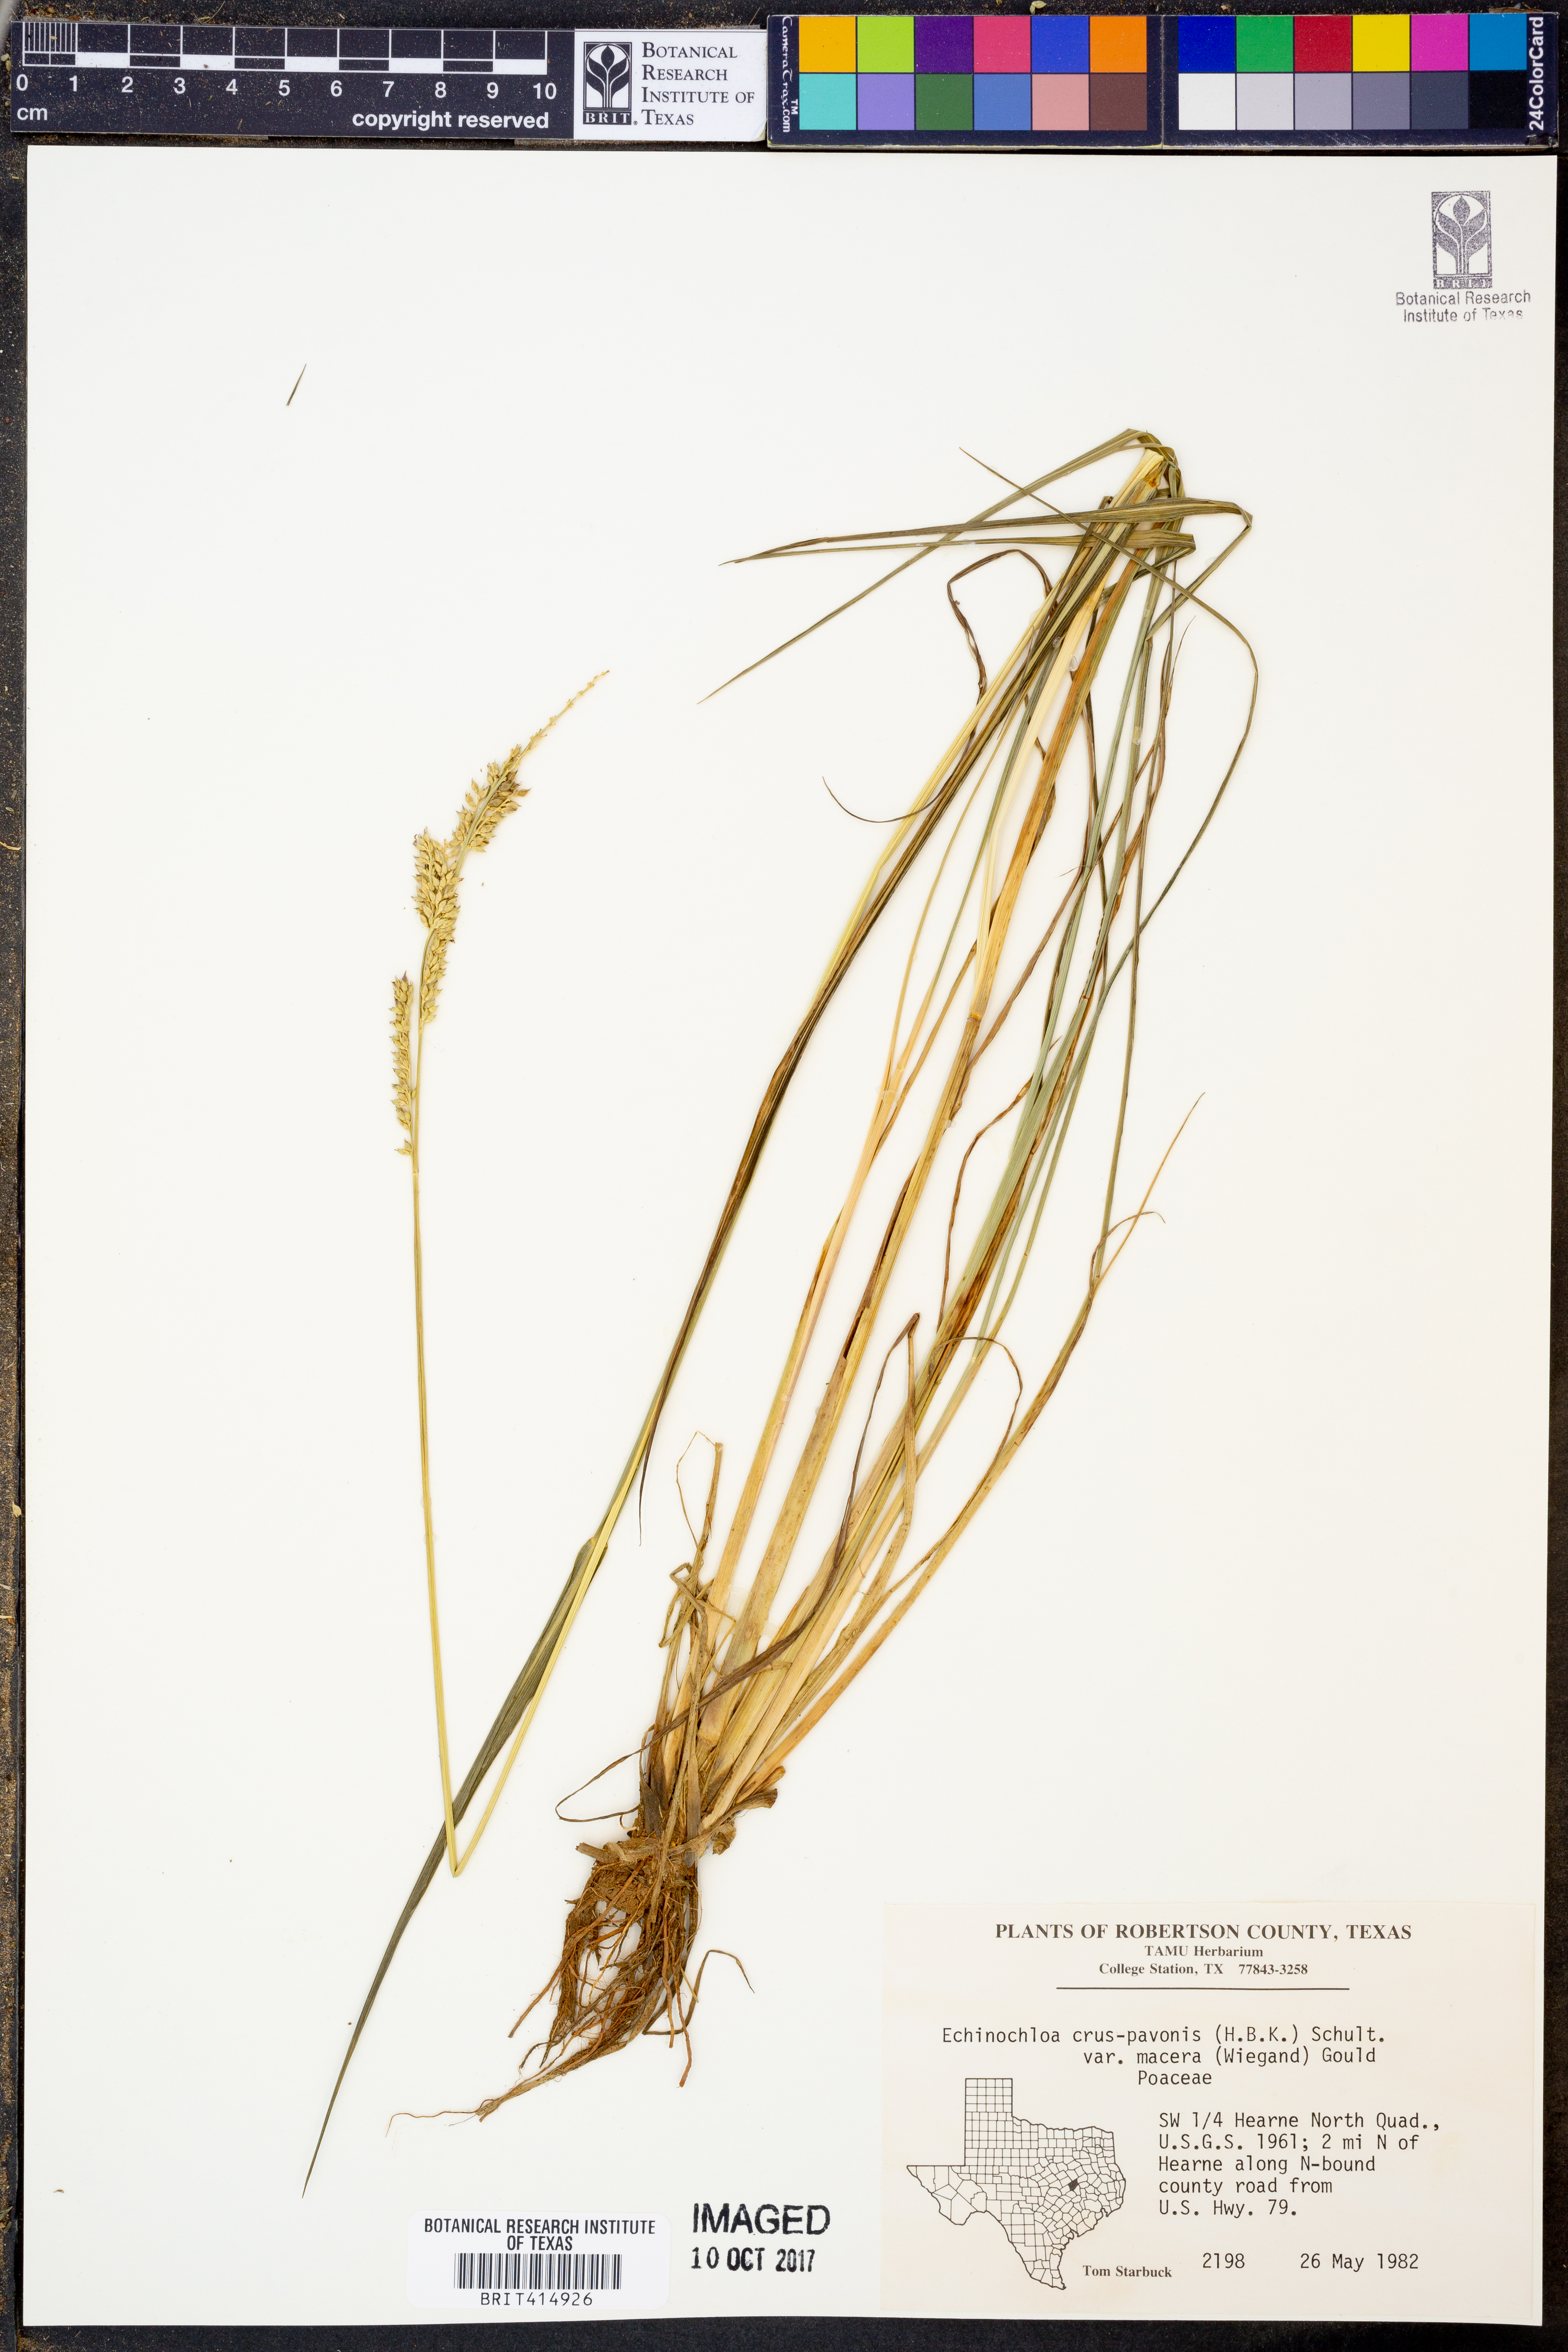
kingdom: Plantae
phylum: Tracheophyta
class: Liliopsida
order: Poales
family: Poaceae
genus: Echinochloa
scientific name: Echinochloa crus-pavonis
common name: Gulf cockspur grass
